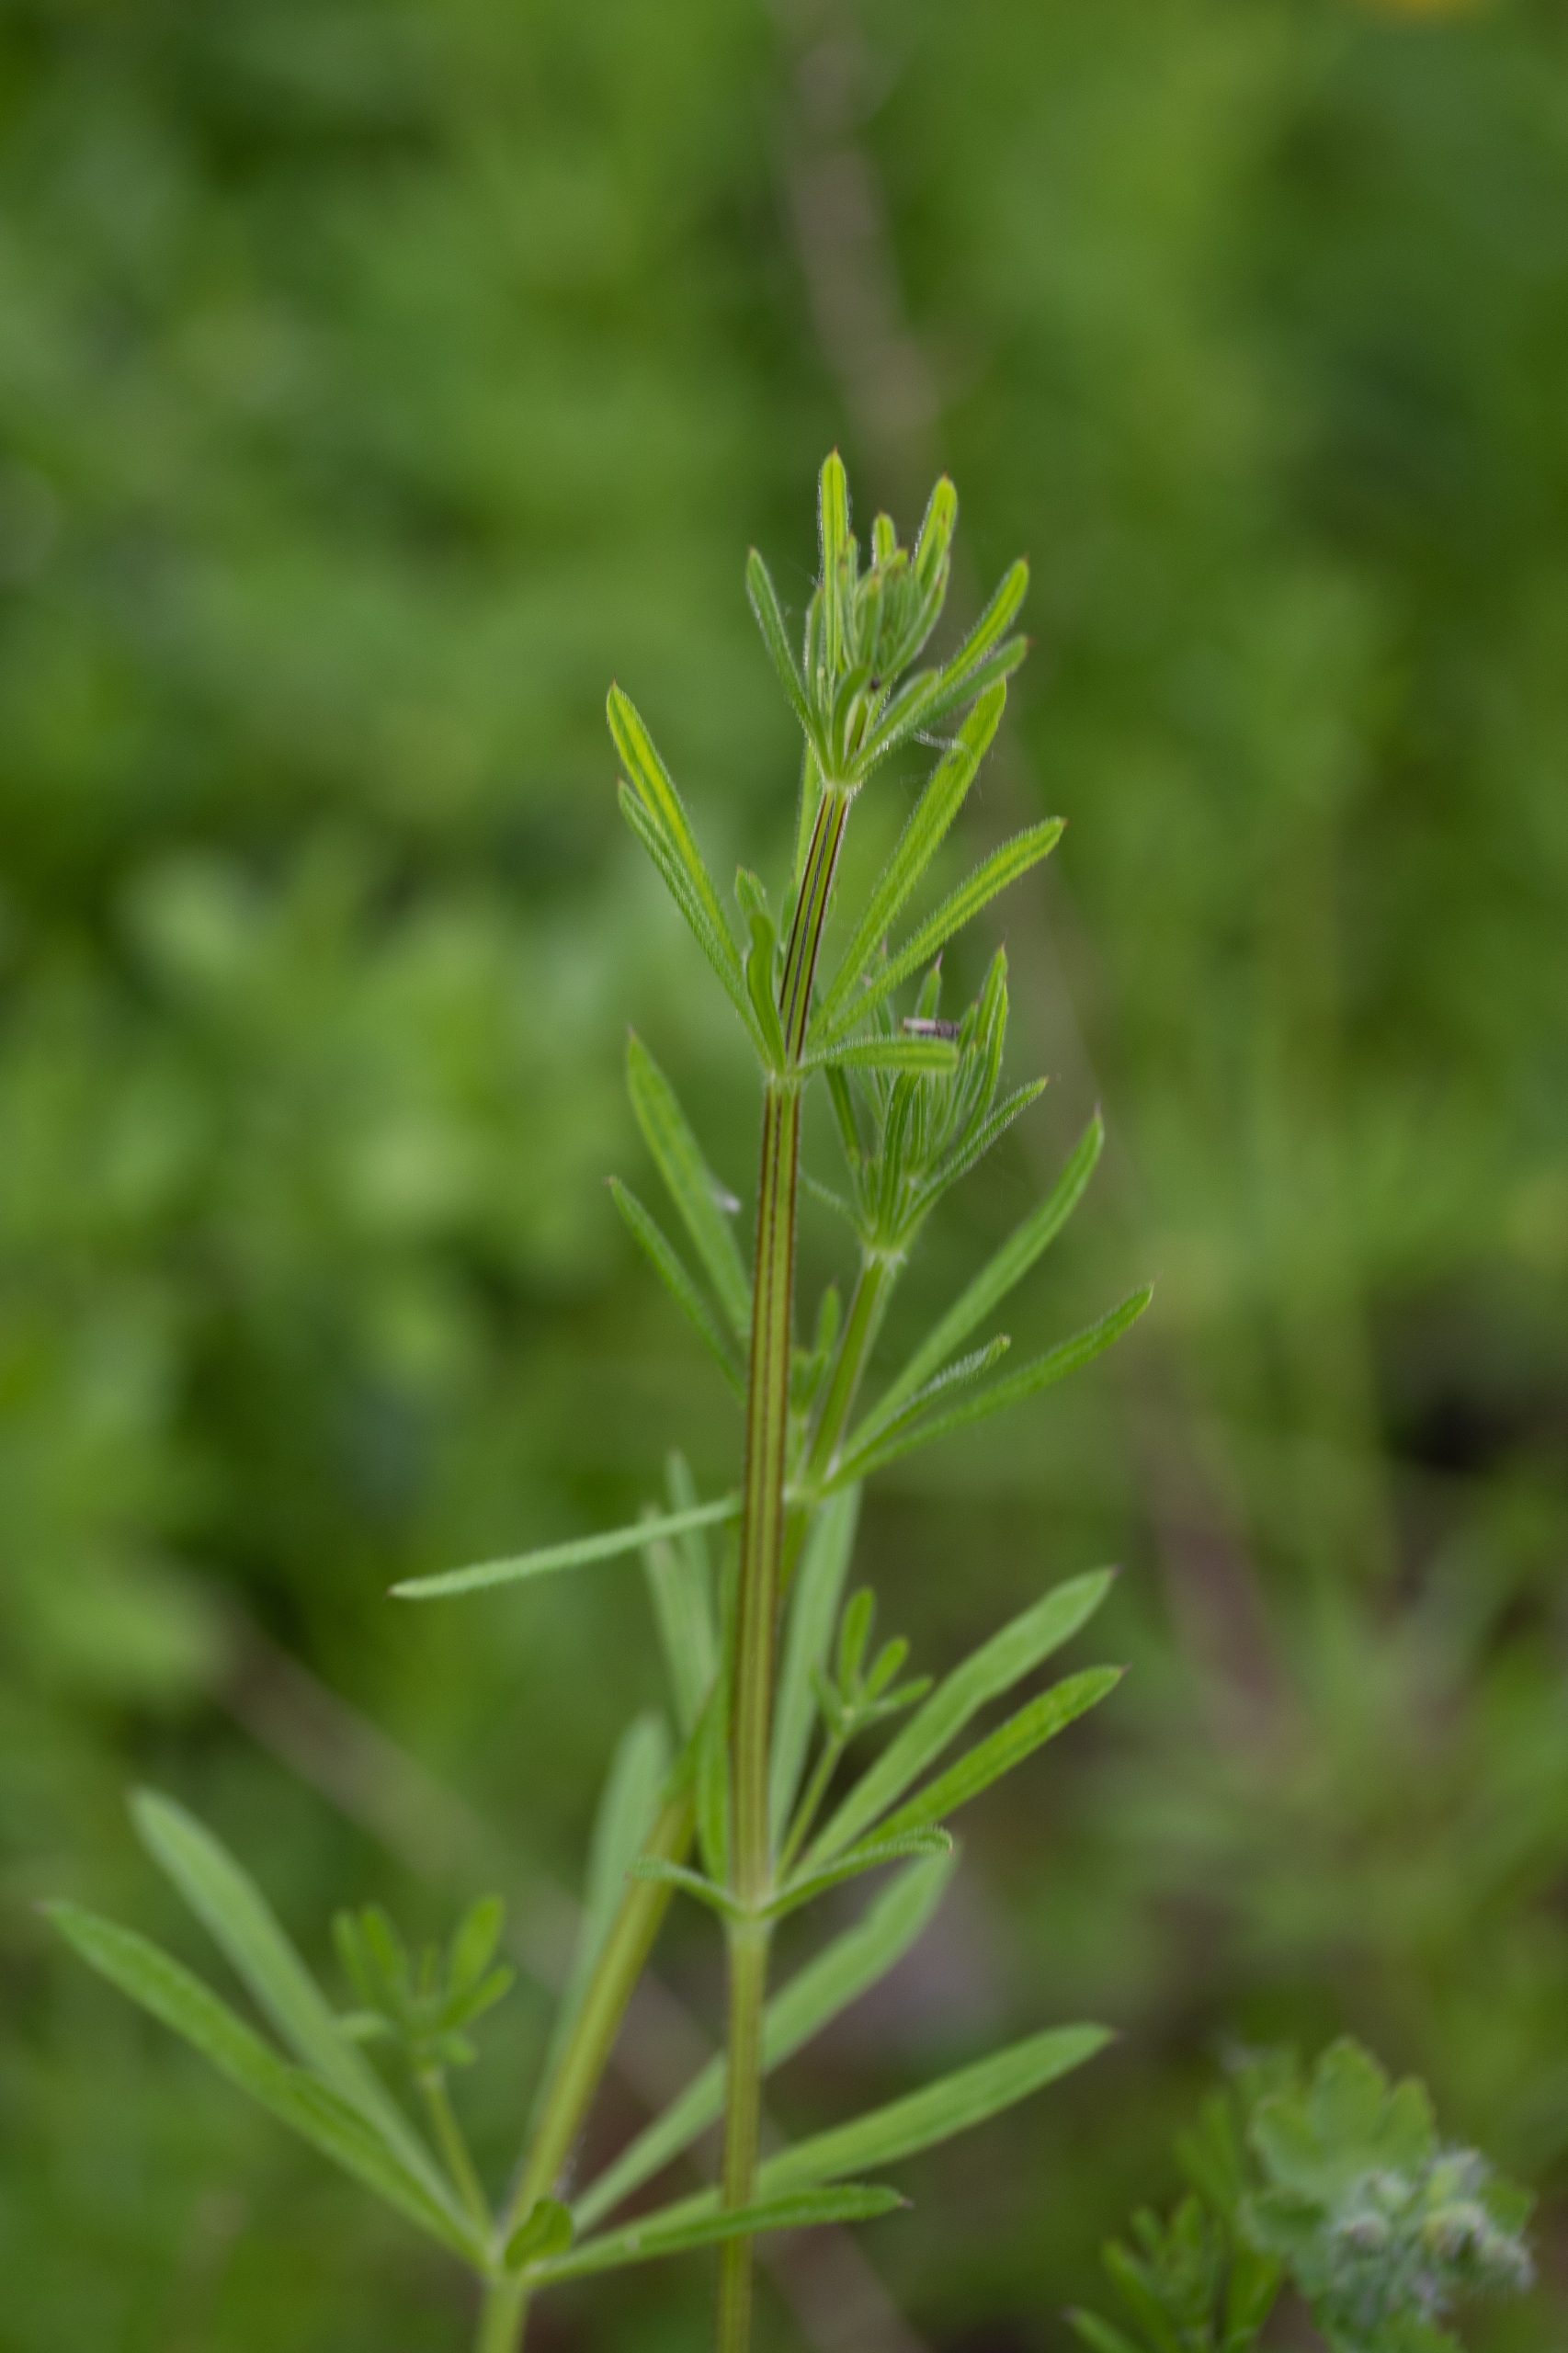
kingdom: Plantae
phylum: Tracheophyta
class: Magnoliopsida
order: Gentianales
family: Rubiaceae
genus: Galium
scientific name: Galium aparine
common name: Burre-snerre
